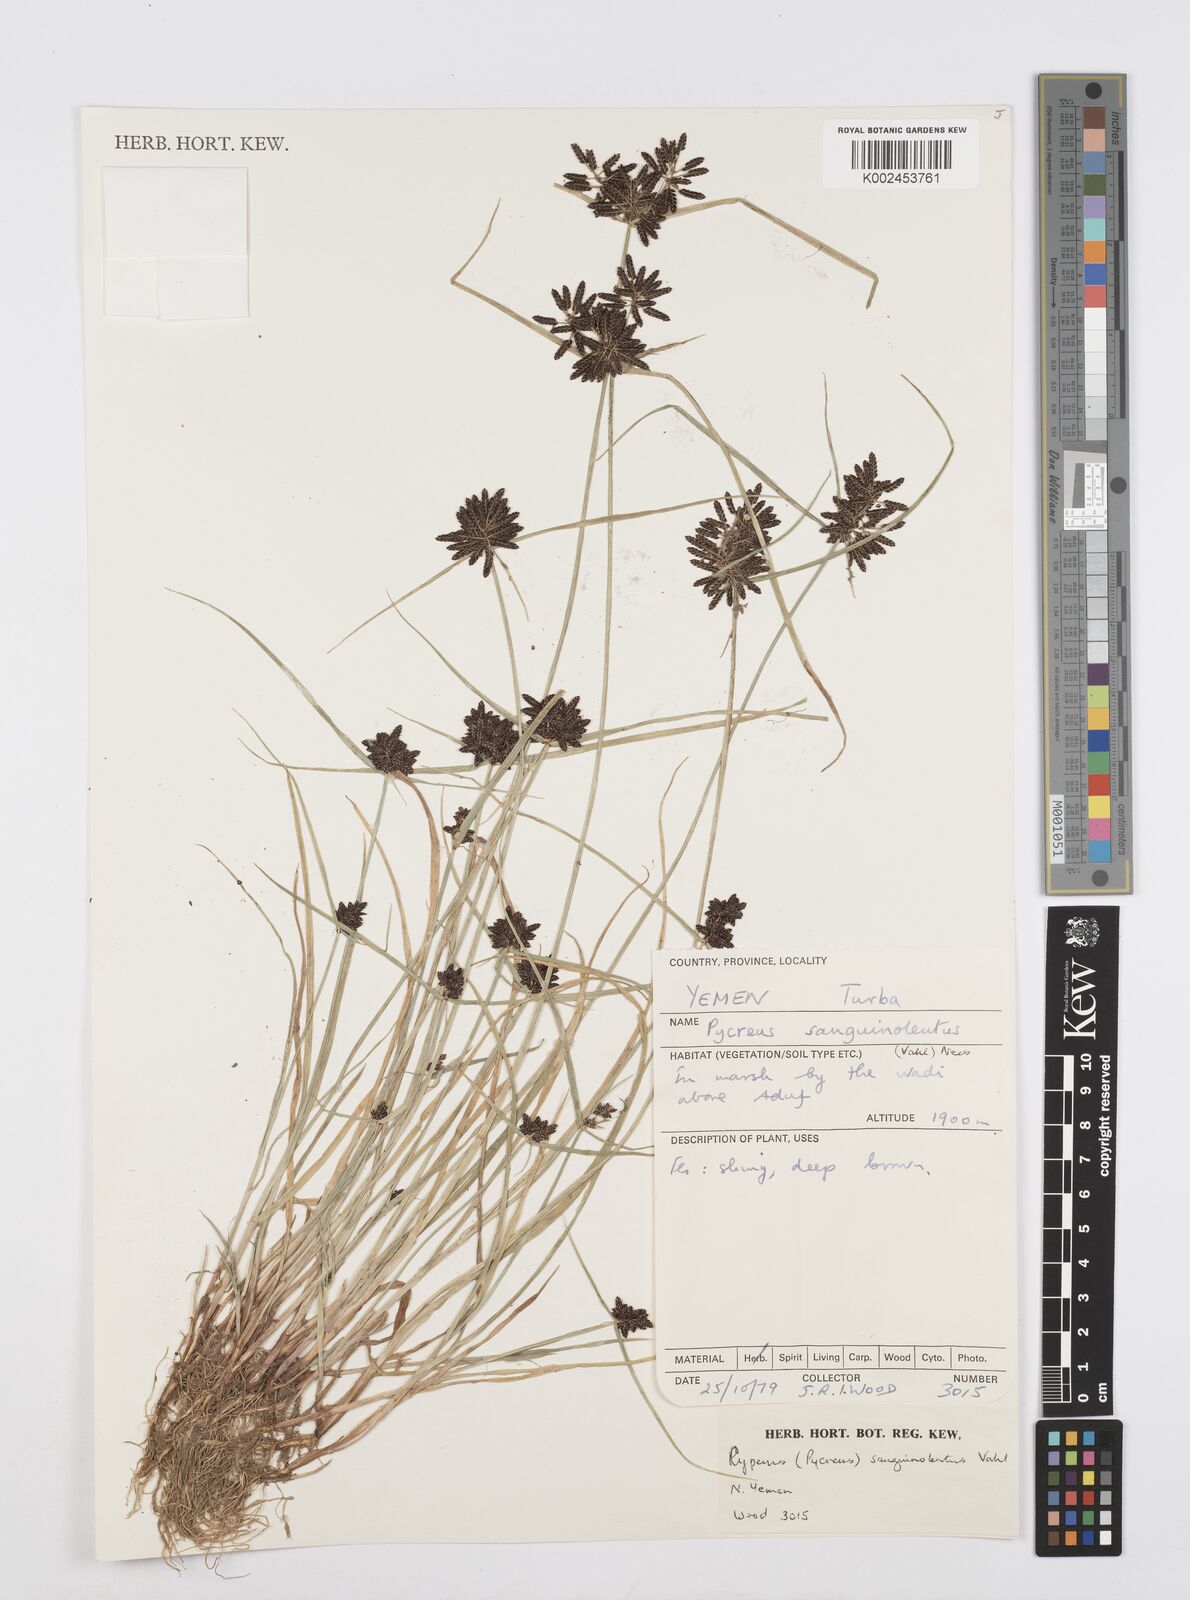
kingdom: Plantae
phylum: Tracheophyta
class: Liliopsida
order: Poales
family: Cyperaceae
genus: Cyperus
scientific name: Cyperus sanguinolentus
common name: Purpleglume flatsedge
